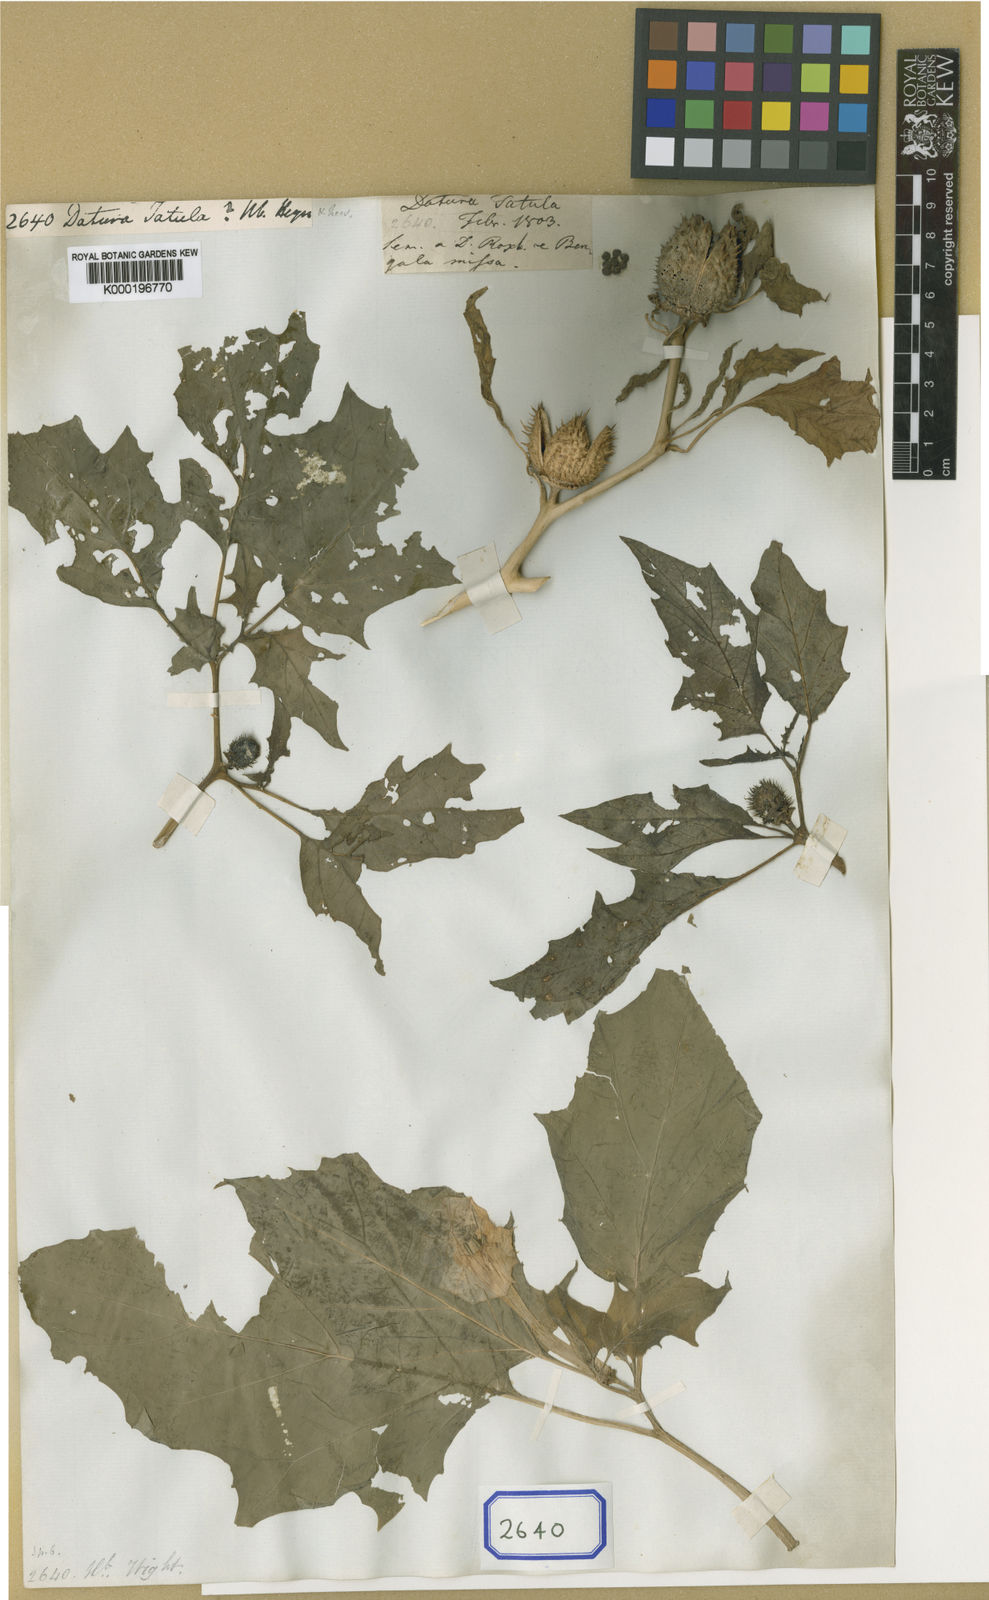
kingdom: Plantae
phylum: Tracheophyta
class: Magnoliopsida
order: Solanales
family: Solanaceae
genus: Datura
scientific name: Datura stramonium
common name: Thorn-apple
